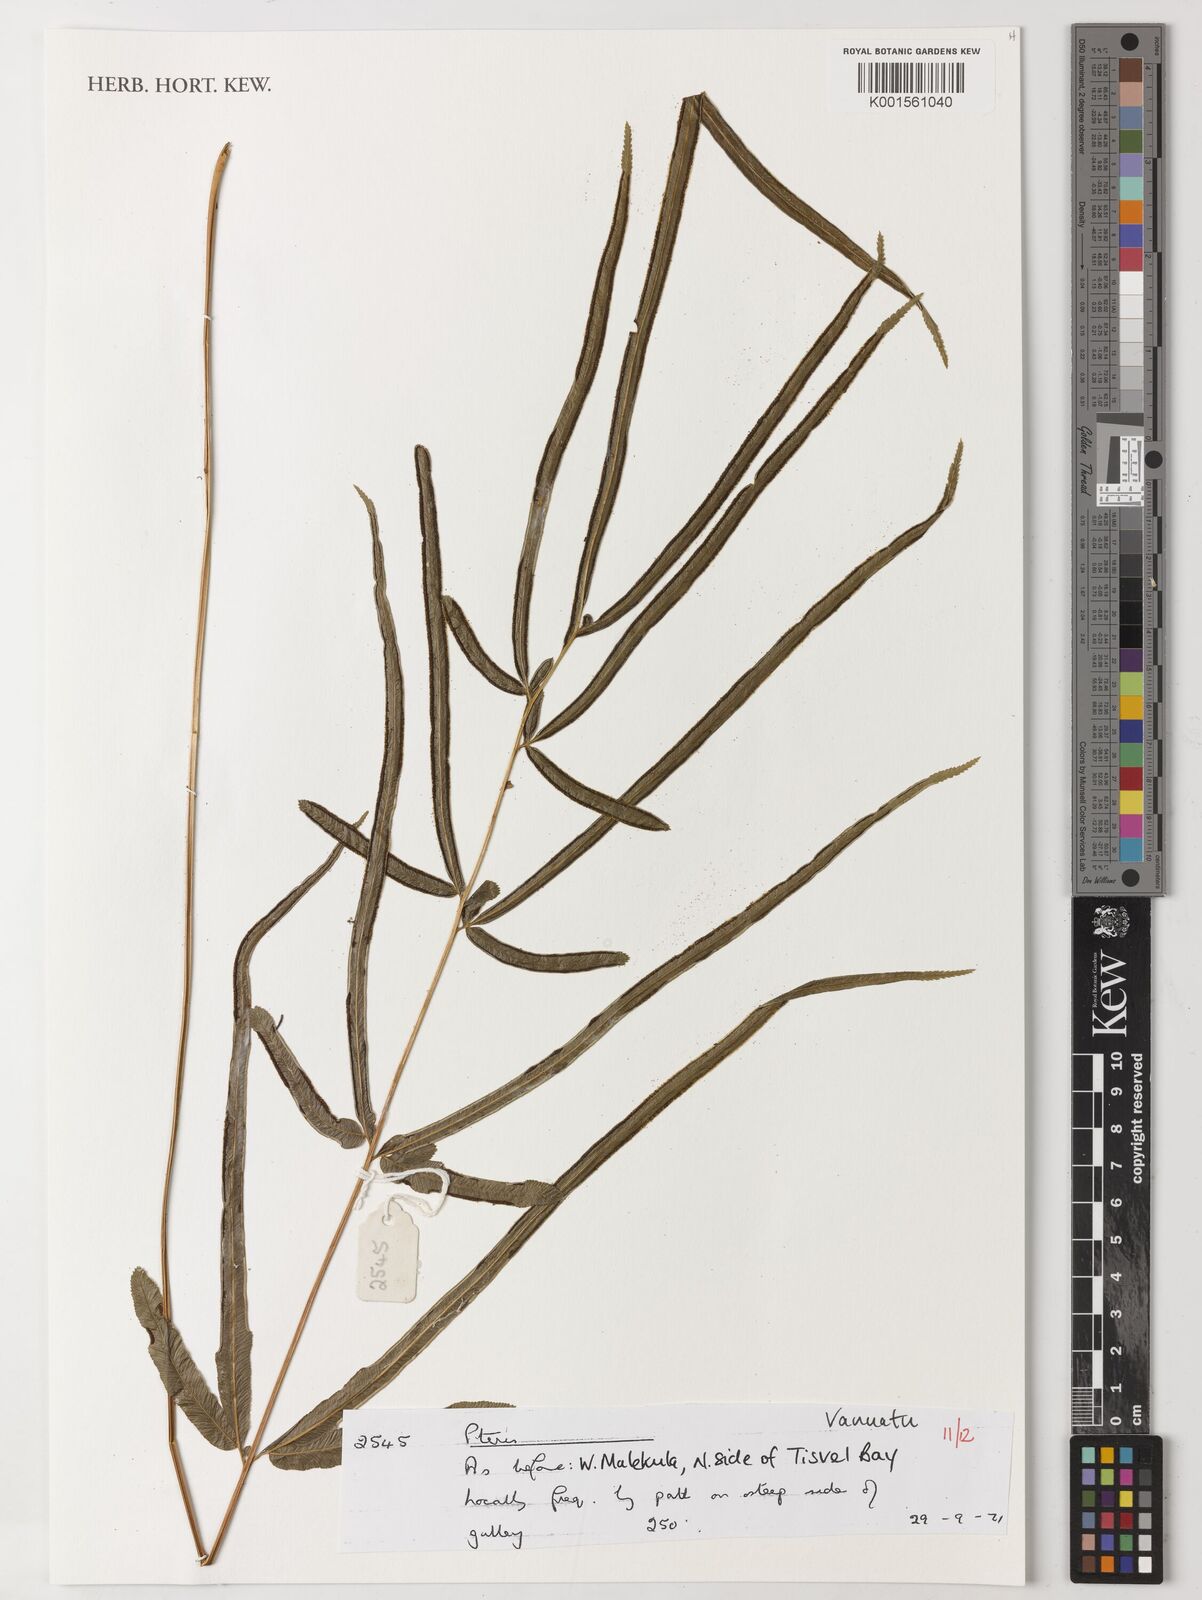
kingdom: Plantae
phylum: Tracheophyta
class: Polypodiopsida
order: Polypodiales
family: Pteridaceae
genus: Pteris
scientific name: Pteris
